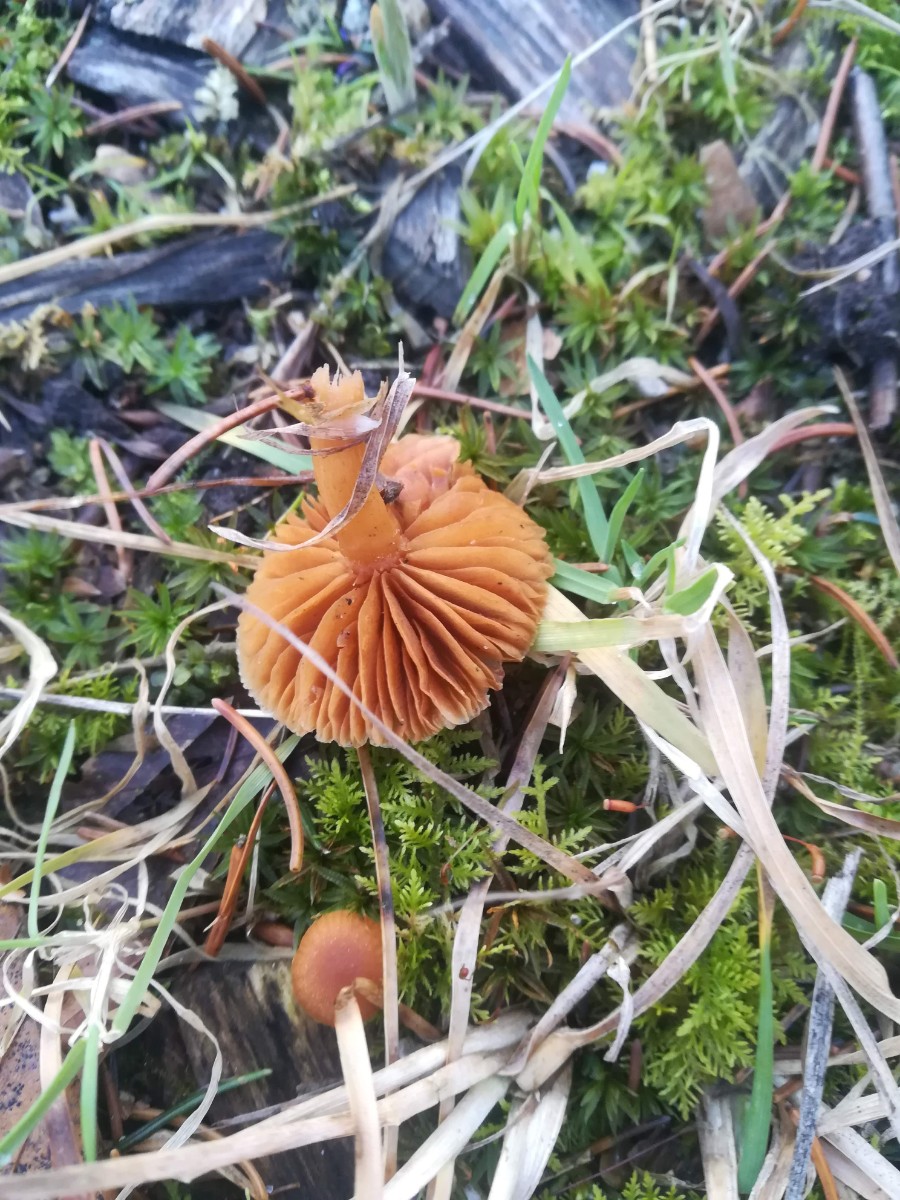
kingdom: Fungi
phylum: Basidiomycota
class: Agaricomycetes
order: Agaricales
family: Tubariaceae
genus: Tubaria
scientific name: Tubaria furfuracea
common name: kliddet fnughat
